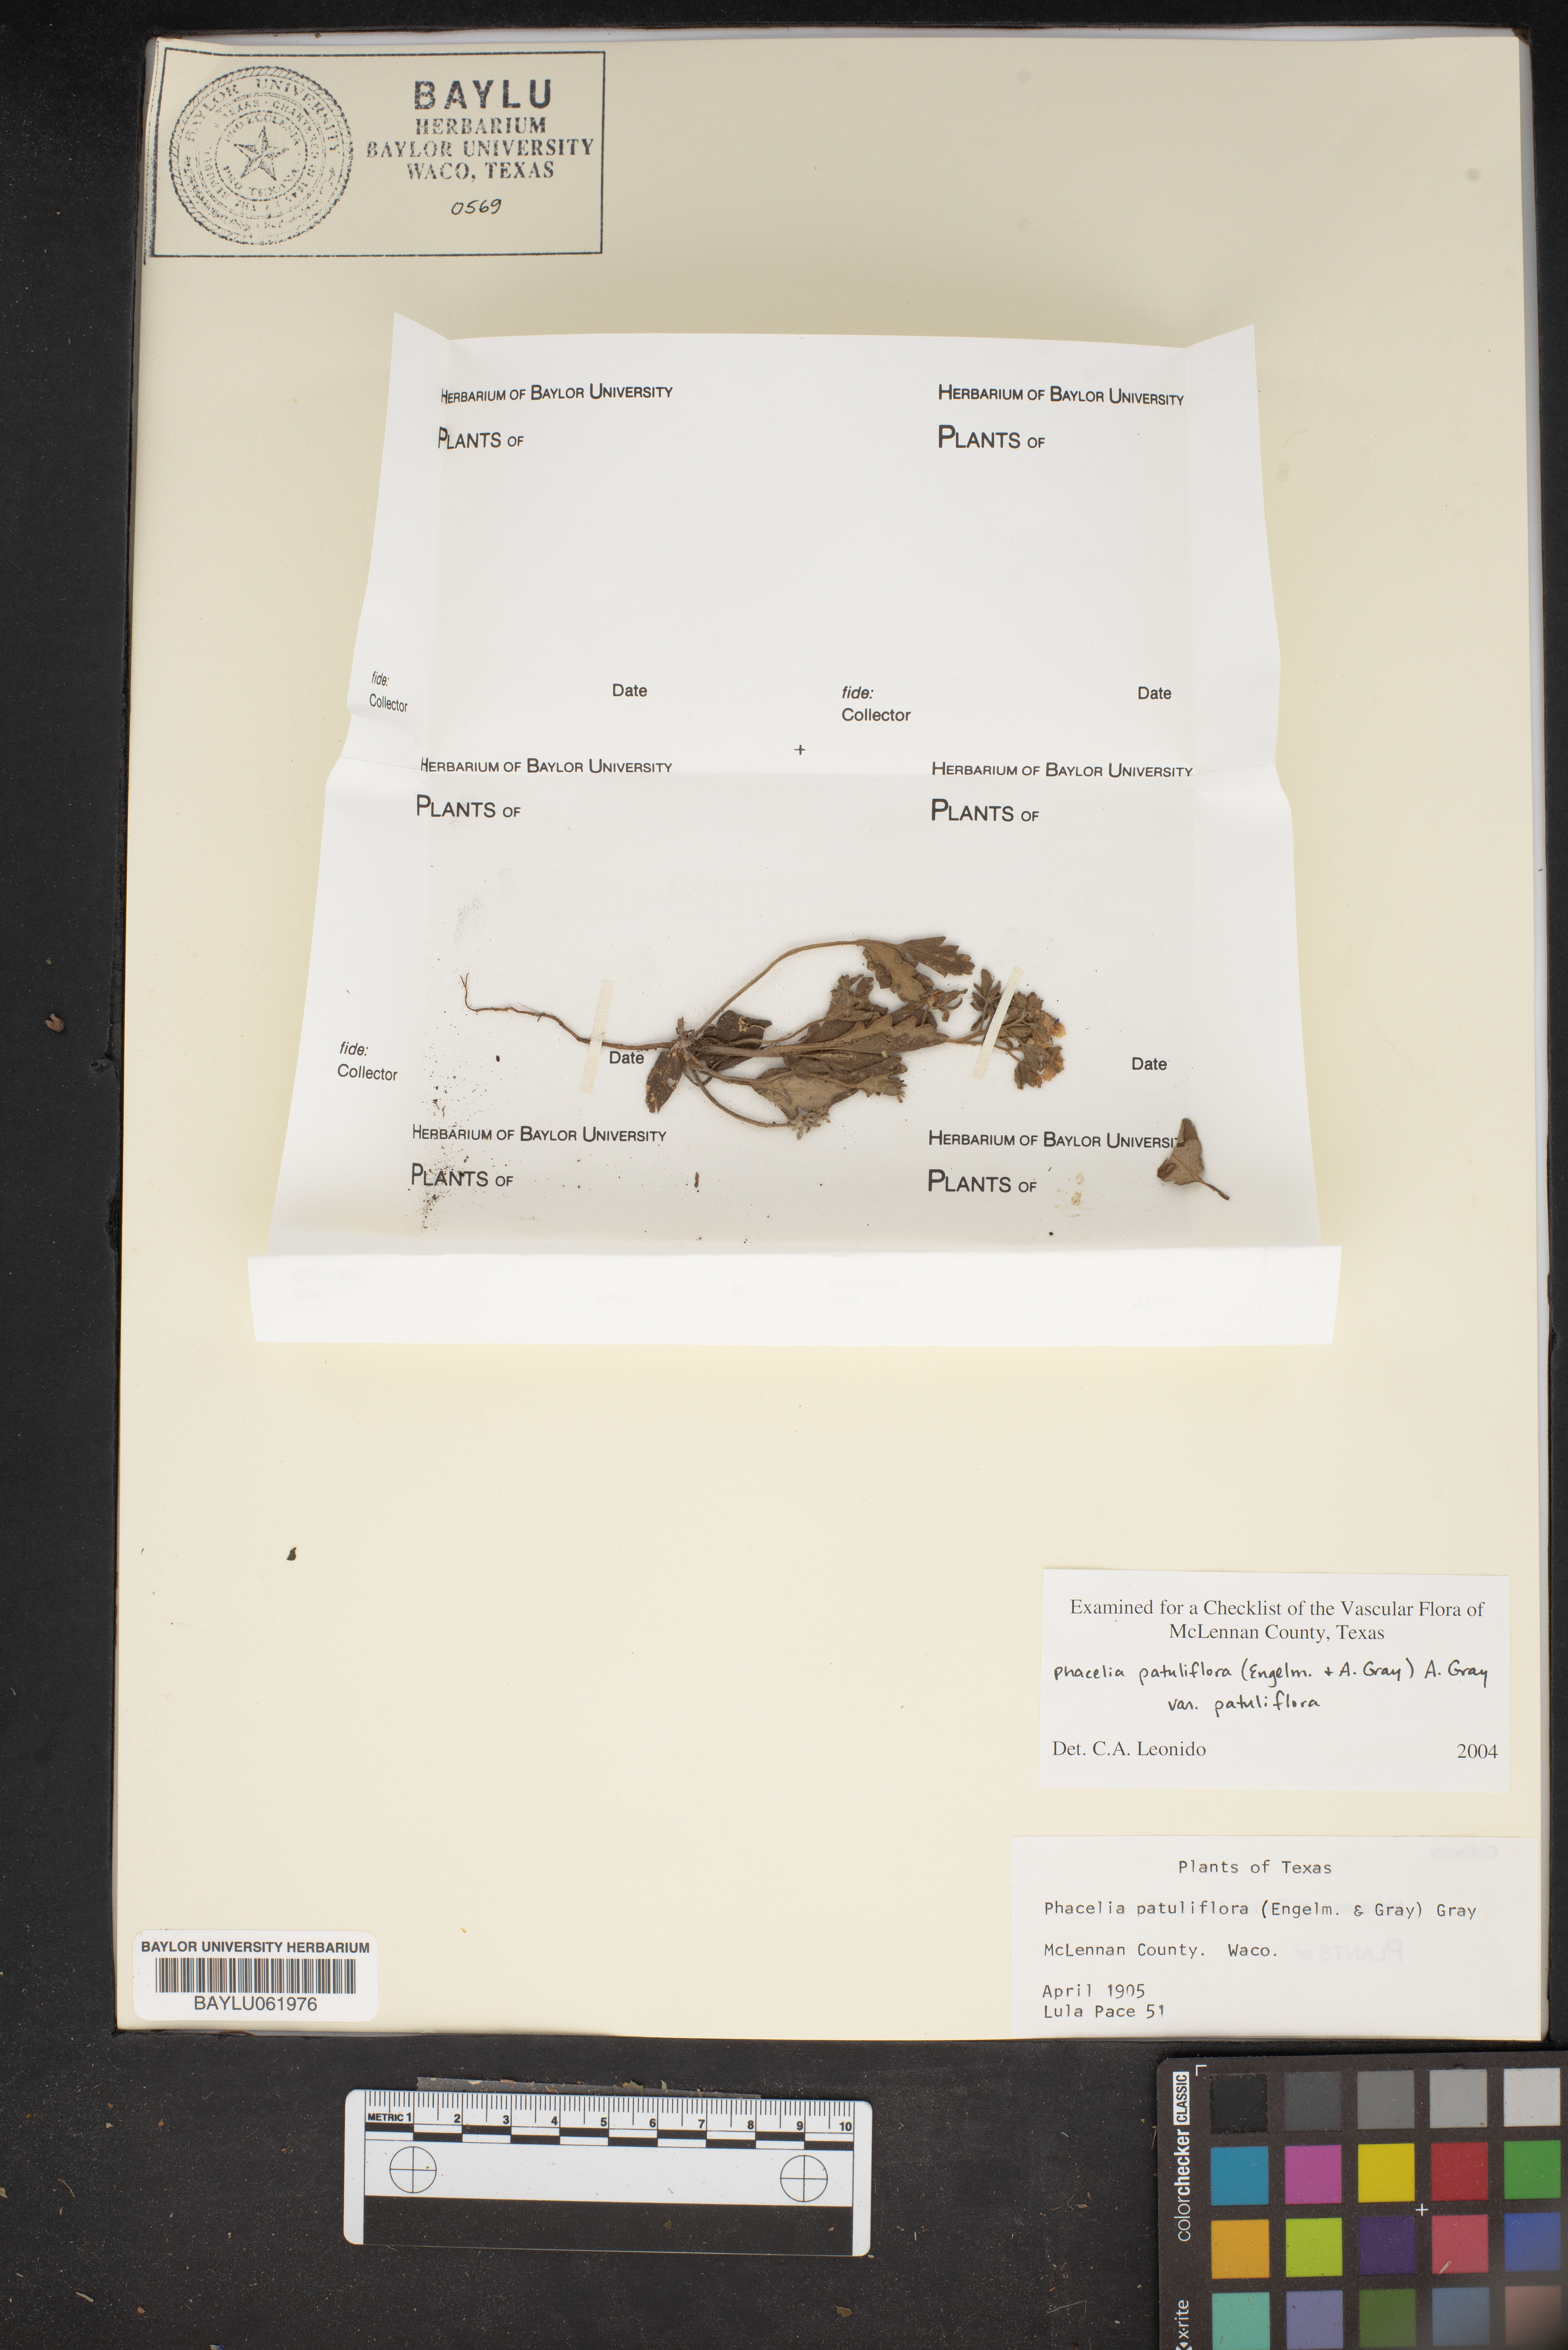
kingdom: Plantae
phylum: Tracheophyta
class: Magnoliopsida
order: Boraginales
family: Hydrophyllaceae
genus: Phacelia
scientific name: Phacelia patuliflora
